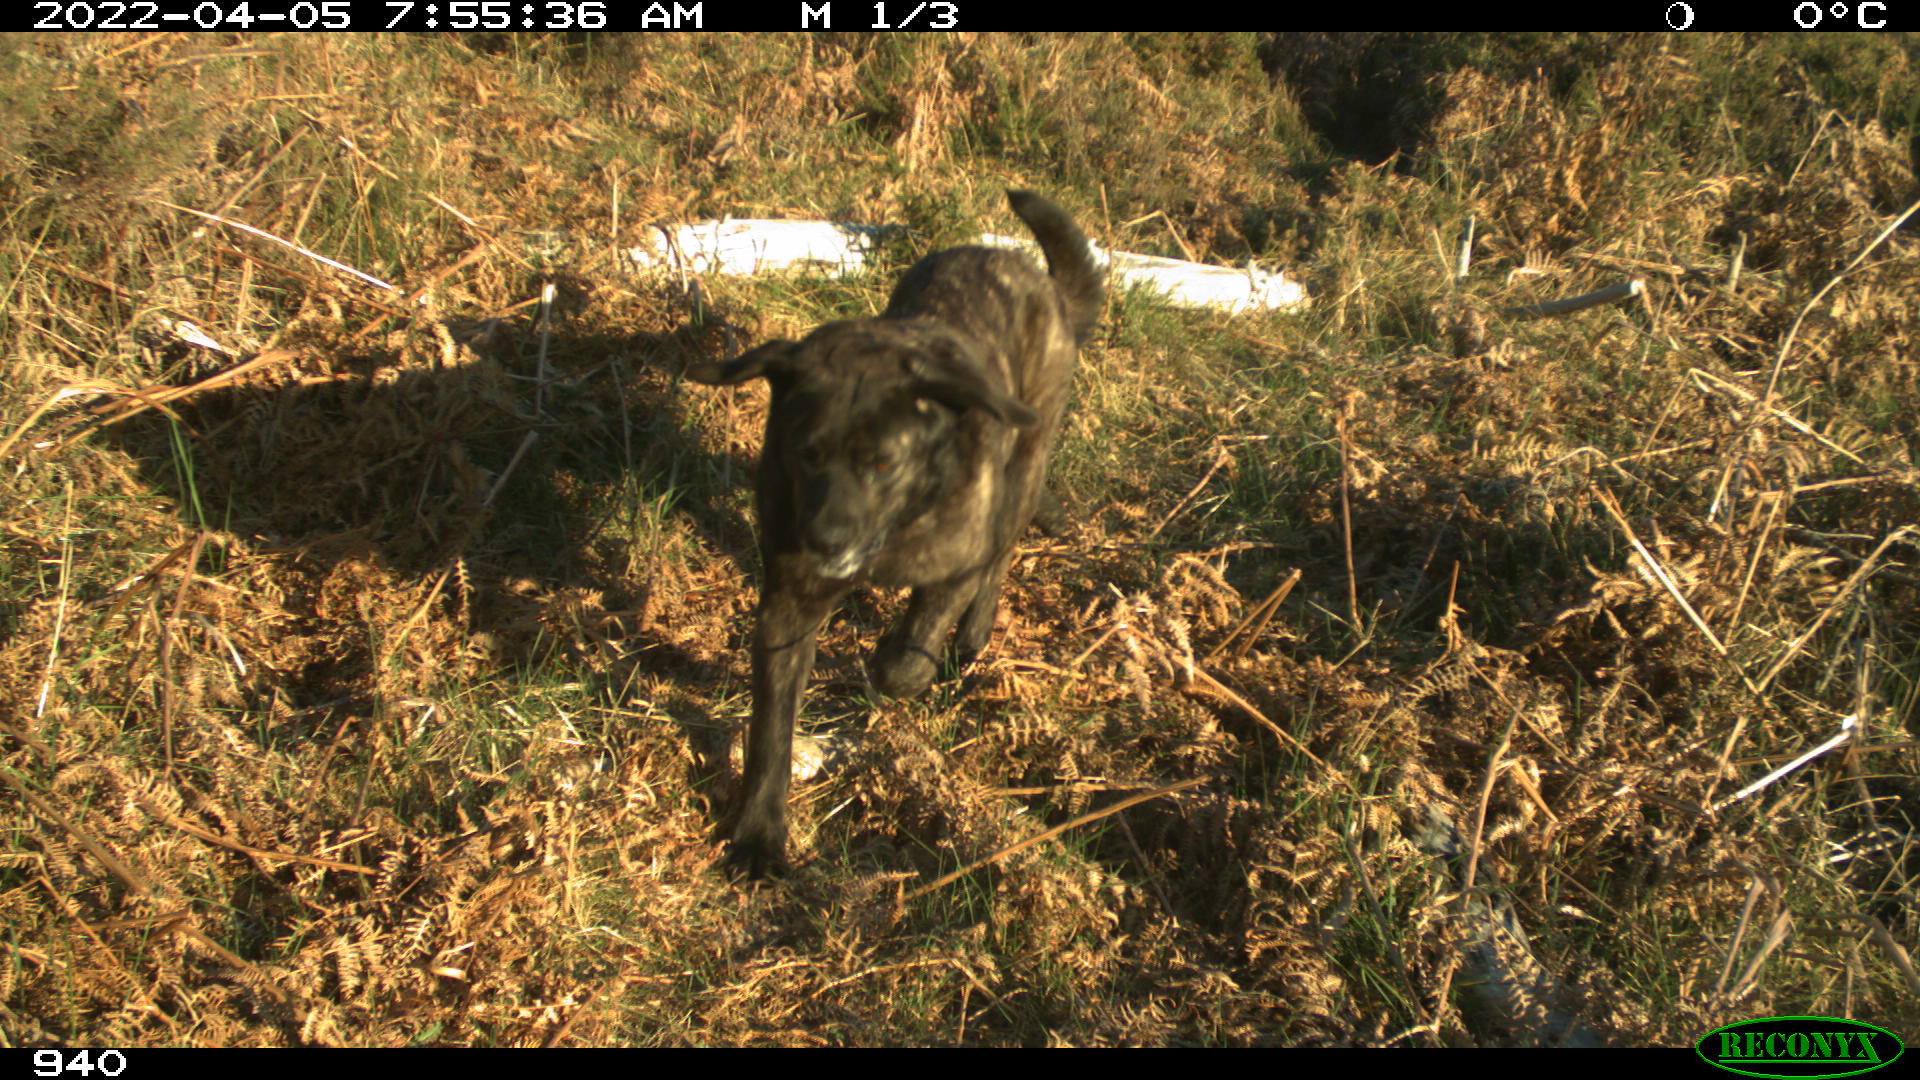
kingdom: Animalia
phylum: Chordata
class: Mammalia
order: Carnivora
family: Canidae
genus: Canis
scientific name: Canis lupus
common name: Gray wolf
